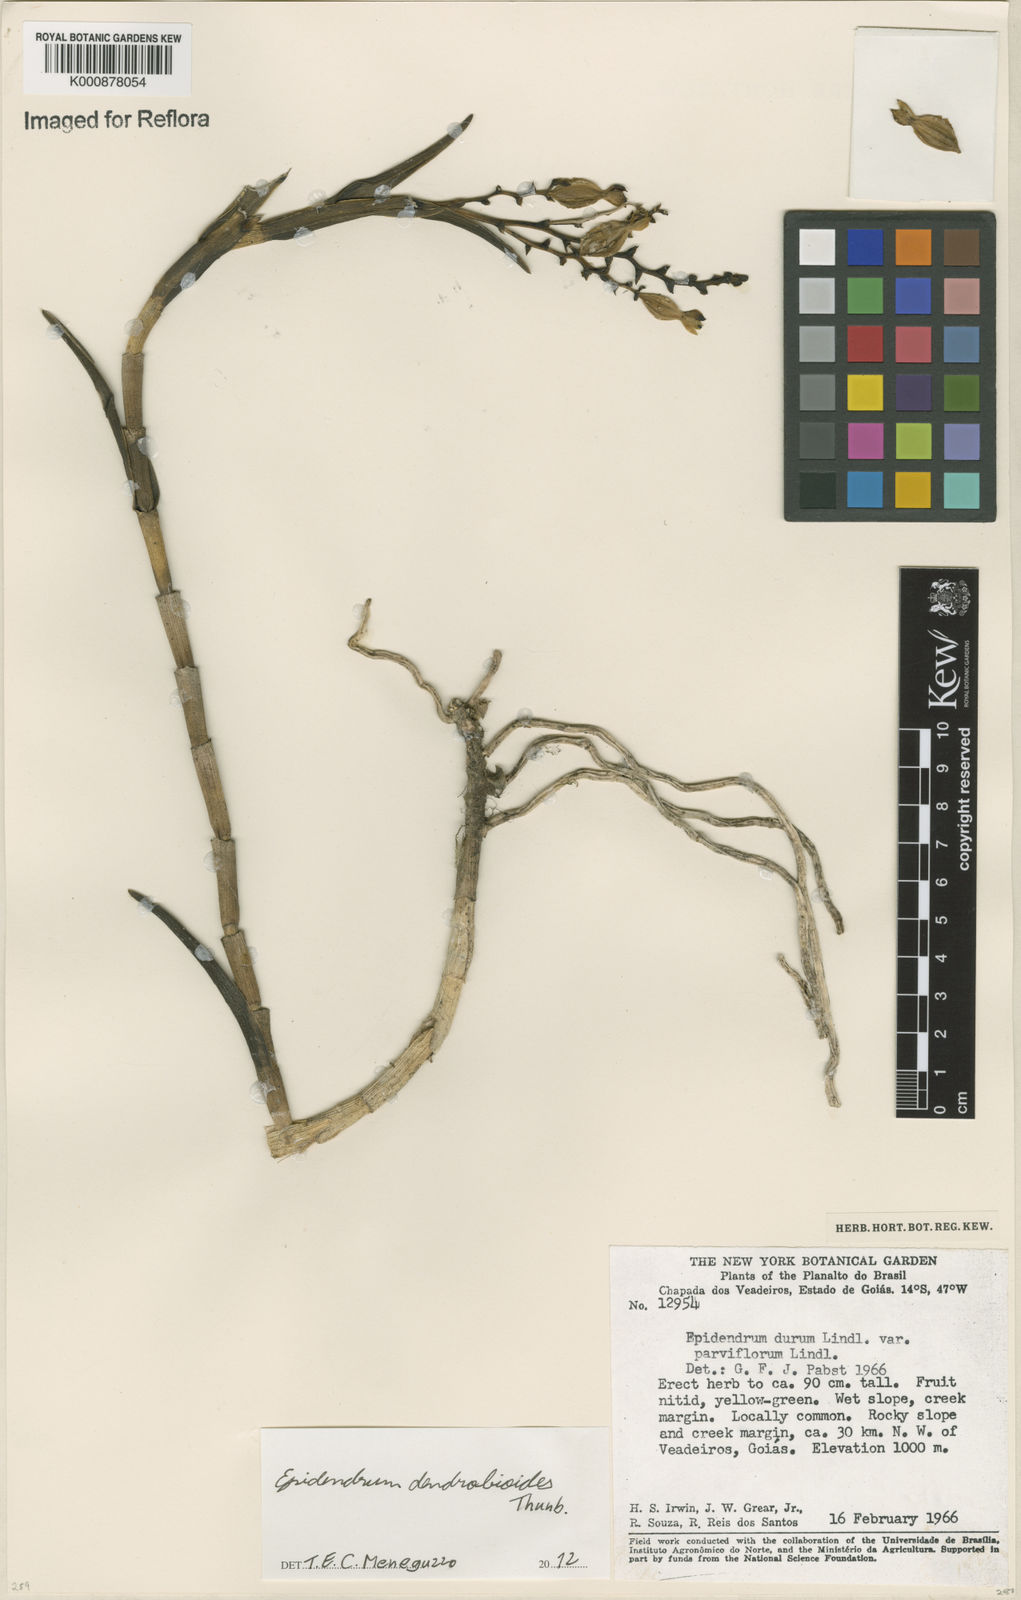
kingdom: Plantae
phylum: Tracheophyta
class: Liliopsida
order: Asparagales
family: Orchidaceae
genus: Epidendrum
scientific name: Epidendrum dendrobioides
